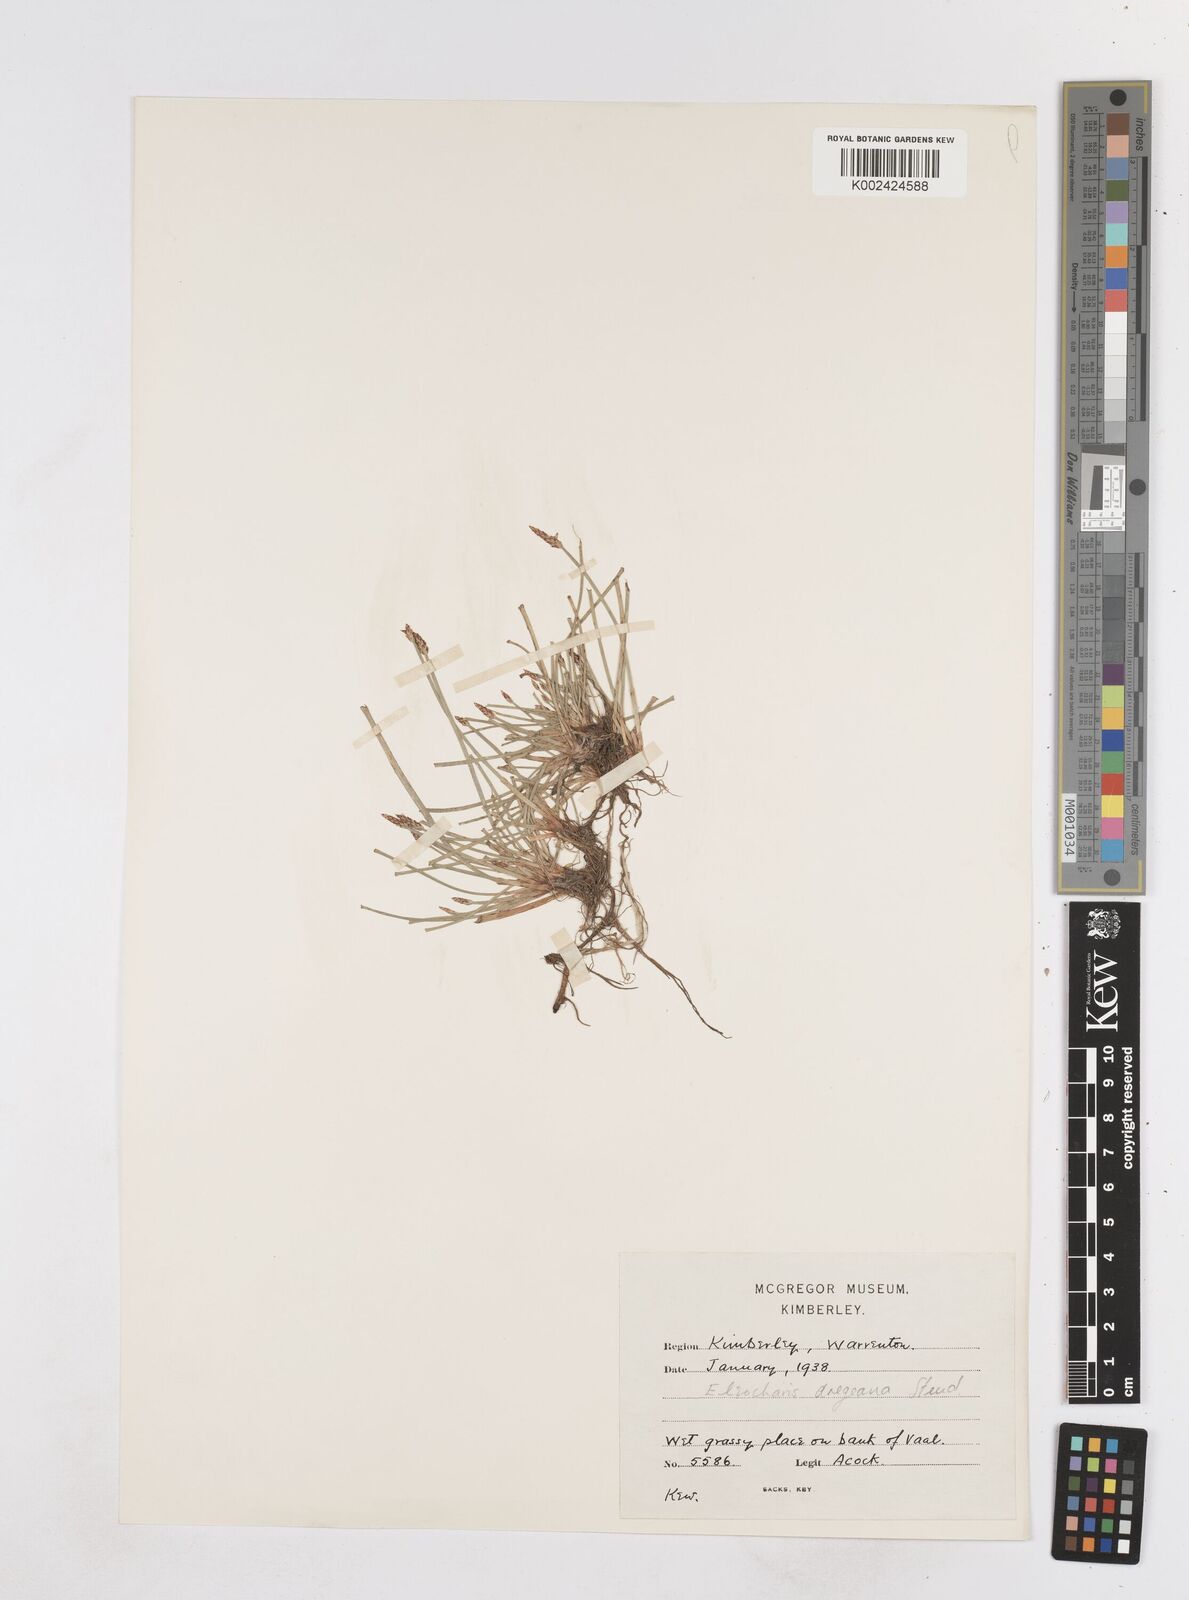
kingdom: Plantae
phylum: Tracheophyta
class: Liliopsida
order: Poales
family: Cyperaceae
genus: Eleocharis
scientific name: Eleocharis dregeana
